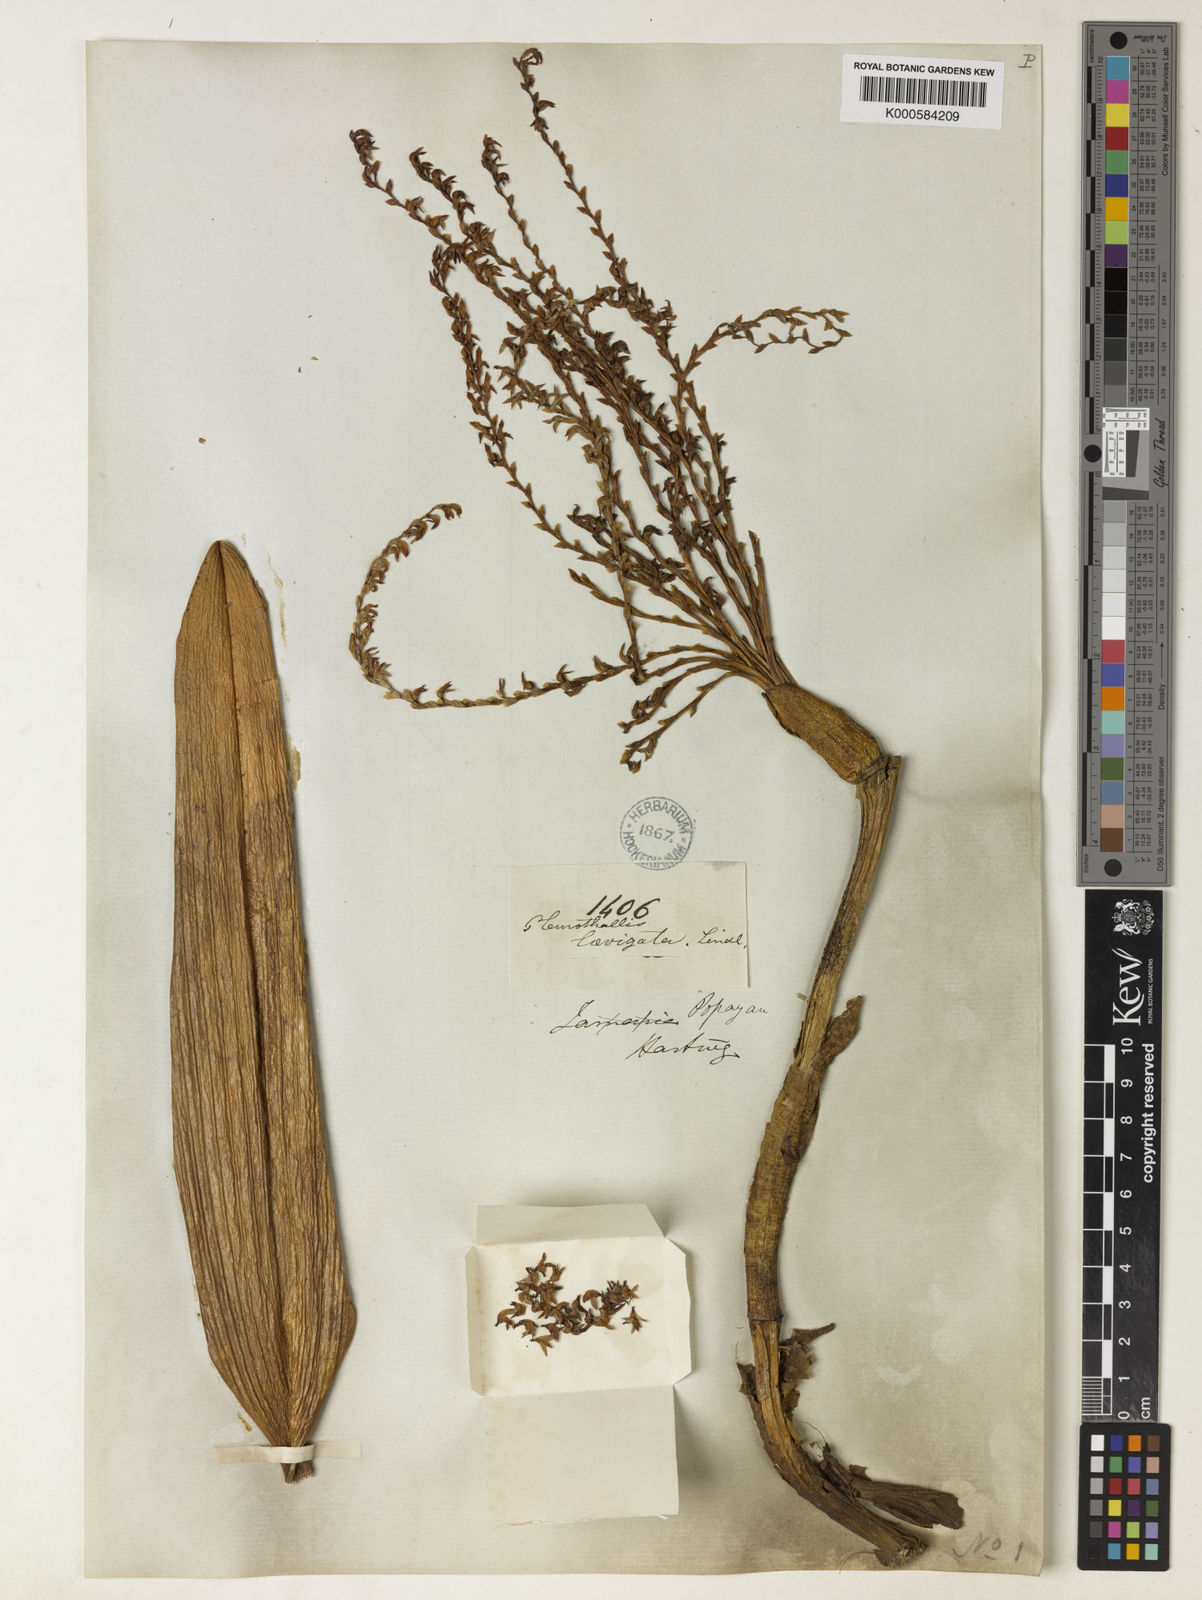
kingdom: Plantae
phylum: Tracheophyta
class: Liliopsida
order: Asparagales
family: Orchidaceae
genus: Stelis
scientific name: Stelis laevigata
